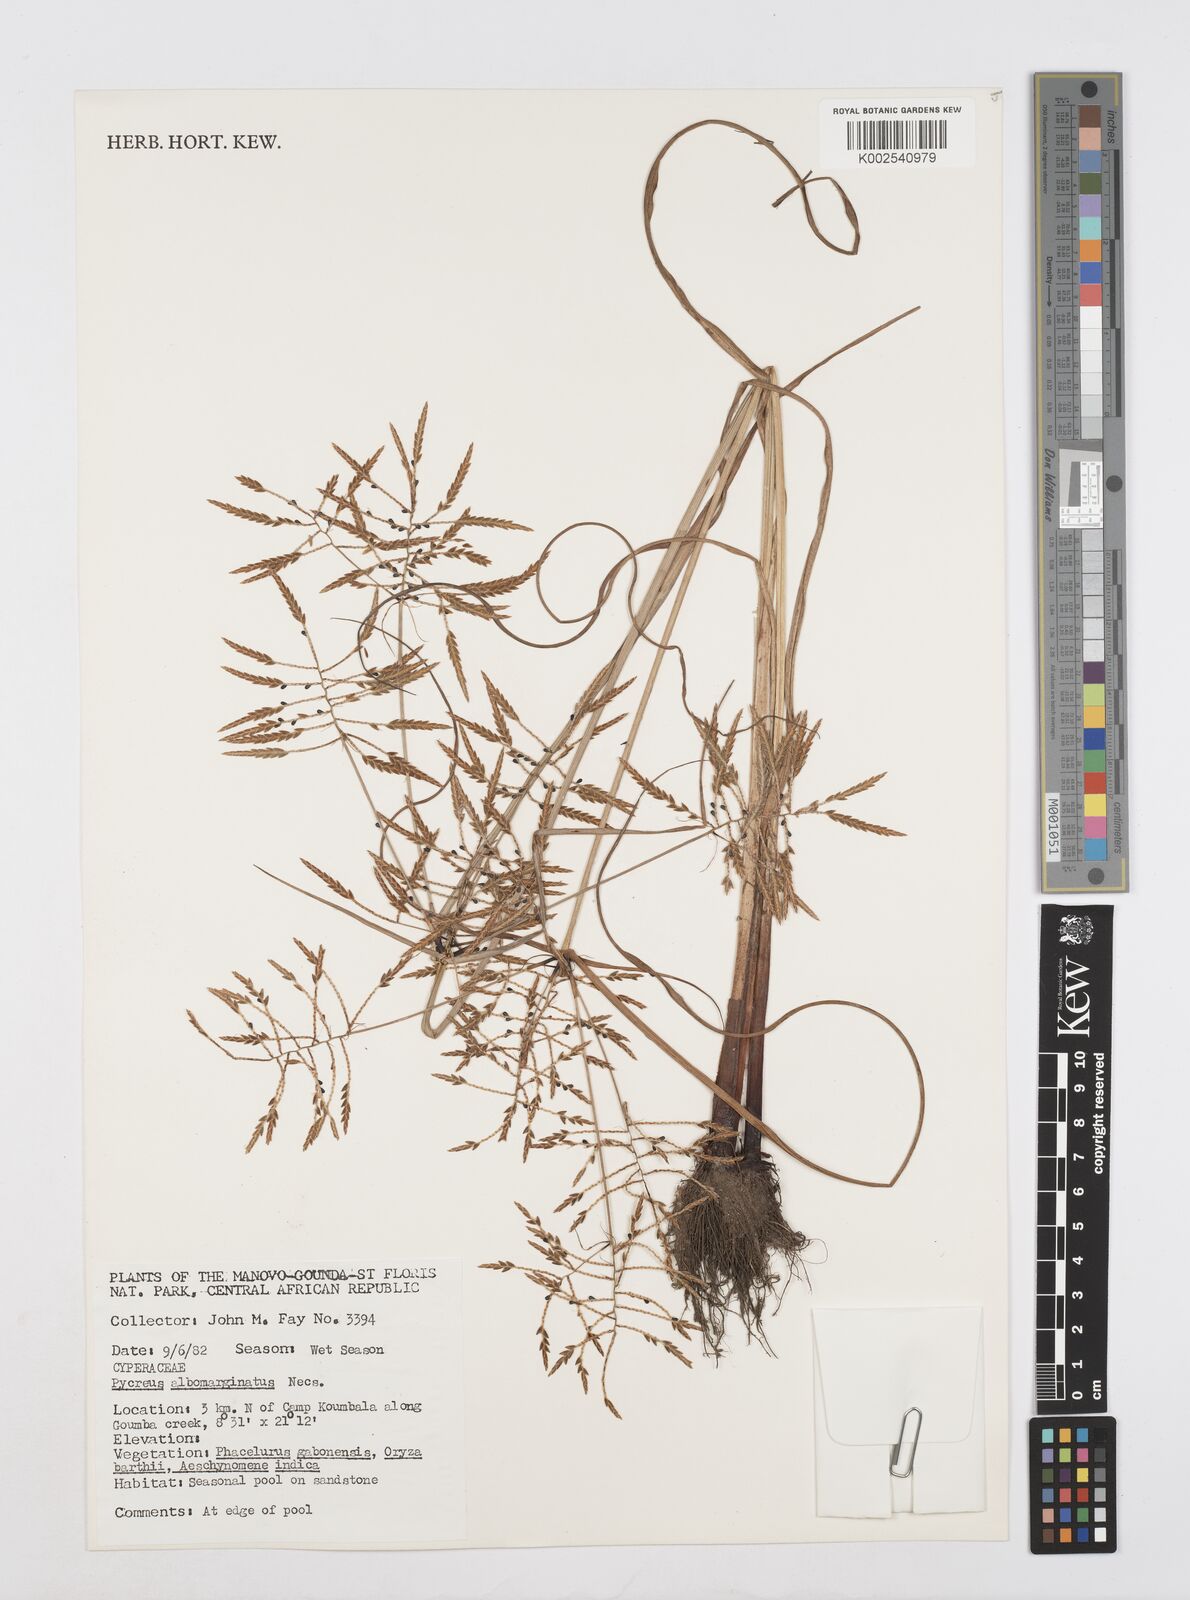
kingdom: Plantae
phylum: Tracheophyta
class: Liliopsida
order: Poales
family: Cyperaceae
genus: Cyperus
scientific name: Cyperus macrostachyos
